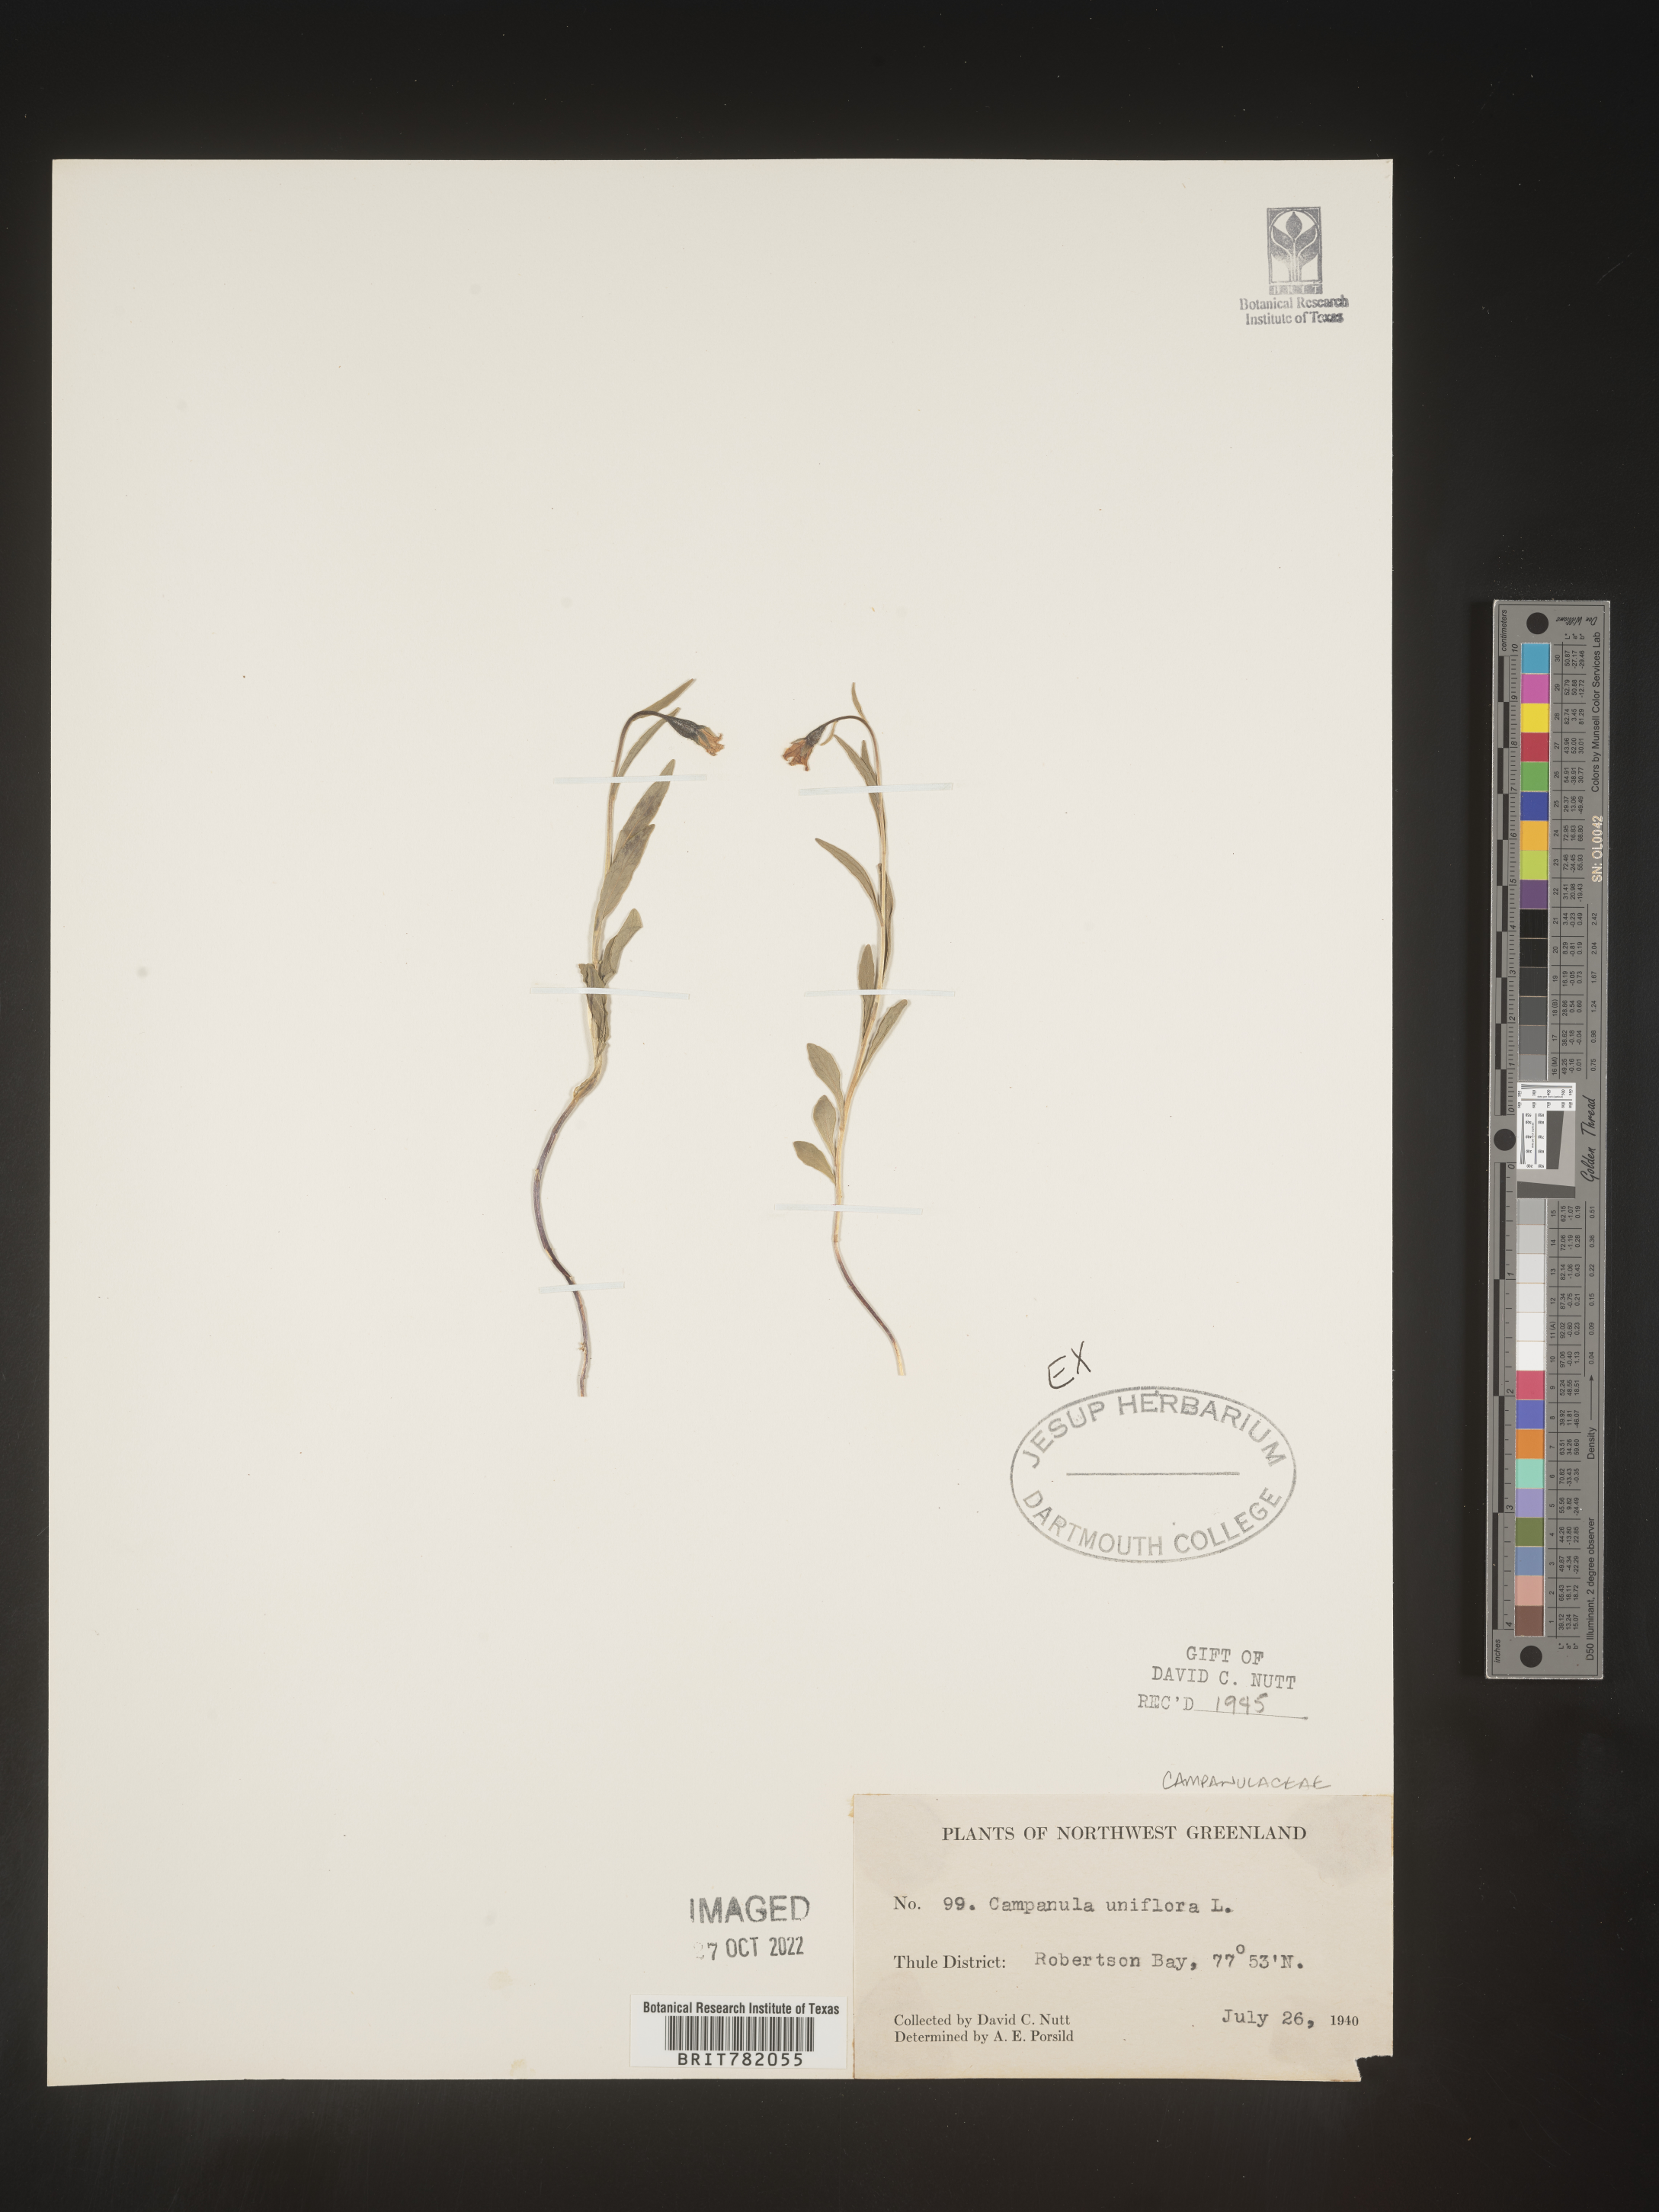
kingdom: Plantae
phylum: Tracheophyta
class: Magnoliopsida
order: Asterales
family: Campanulaceae
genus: Campanula
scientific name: Campanula
